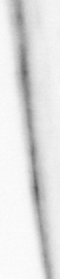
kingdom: Animalia
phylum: Chordata
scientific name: Chordata
